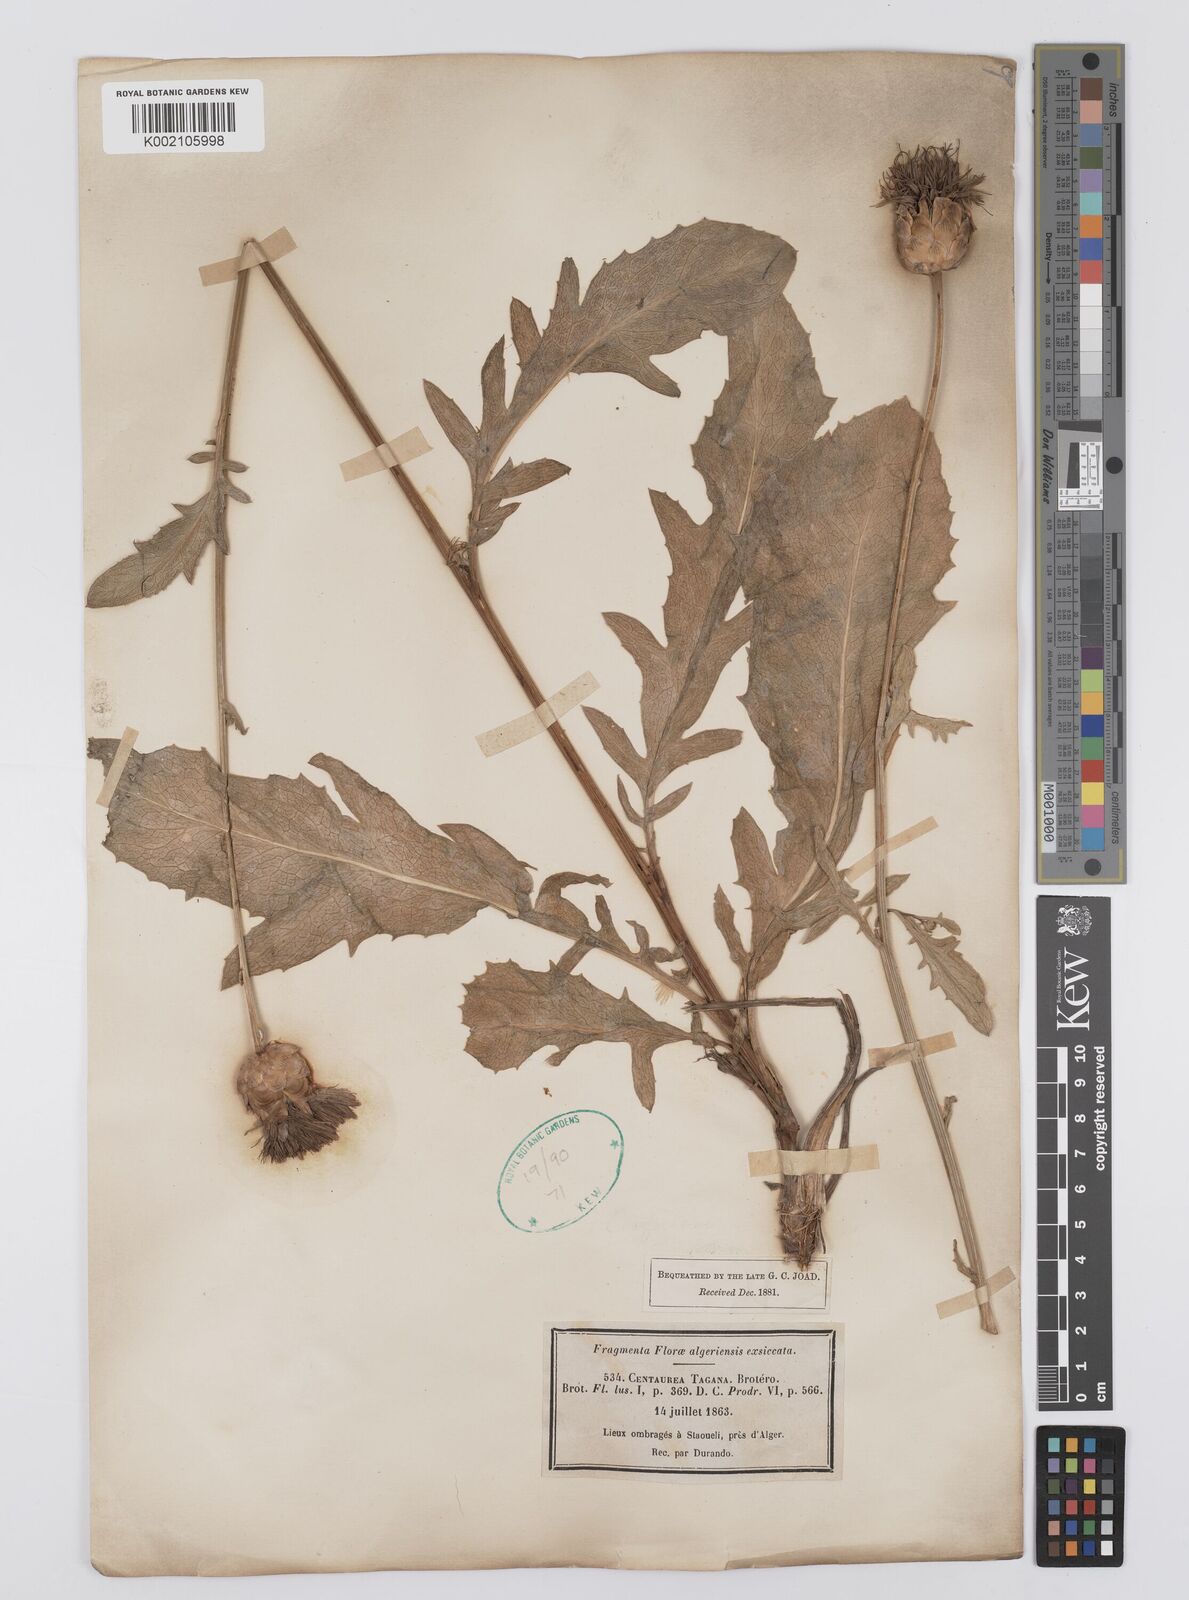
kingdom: Plantae
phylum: Tracheophyta
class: Magnoliopsida
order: Asterales
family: Asteraceae
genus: Rhaponticoides
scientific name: Rhaponticoides africana
